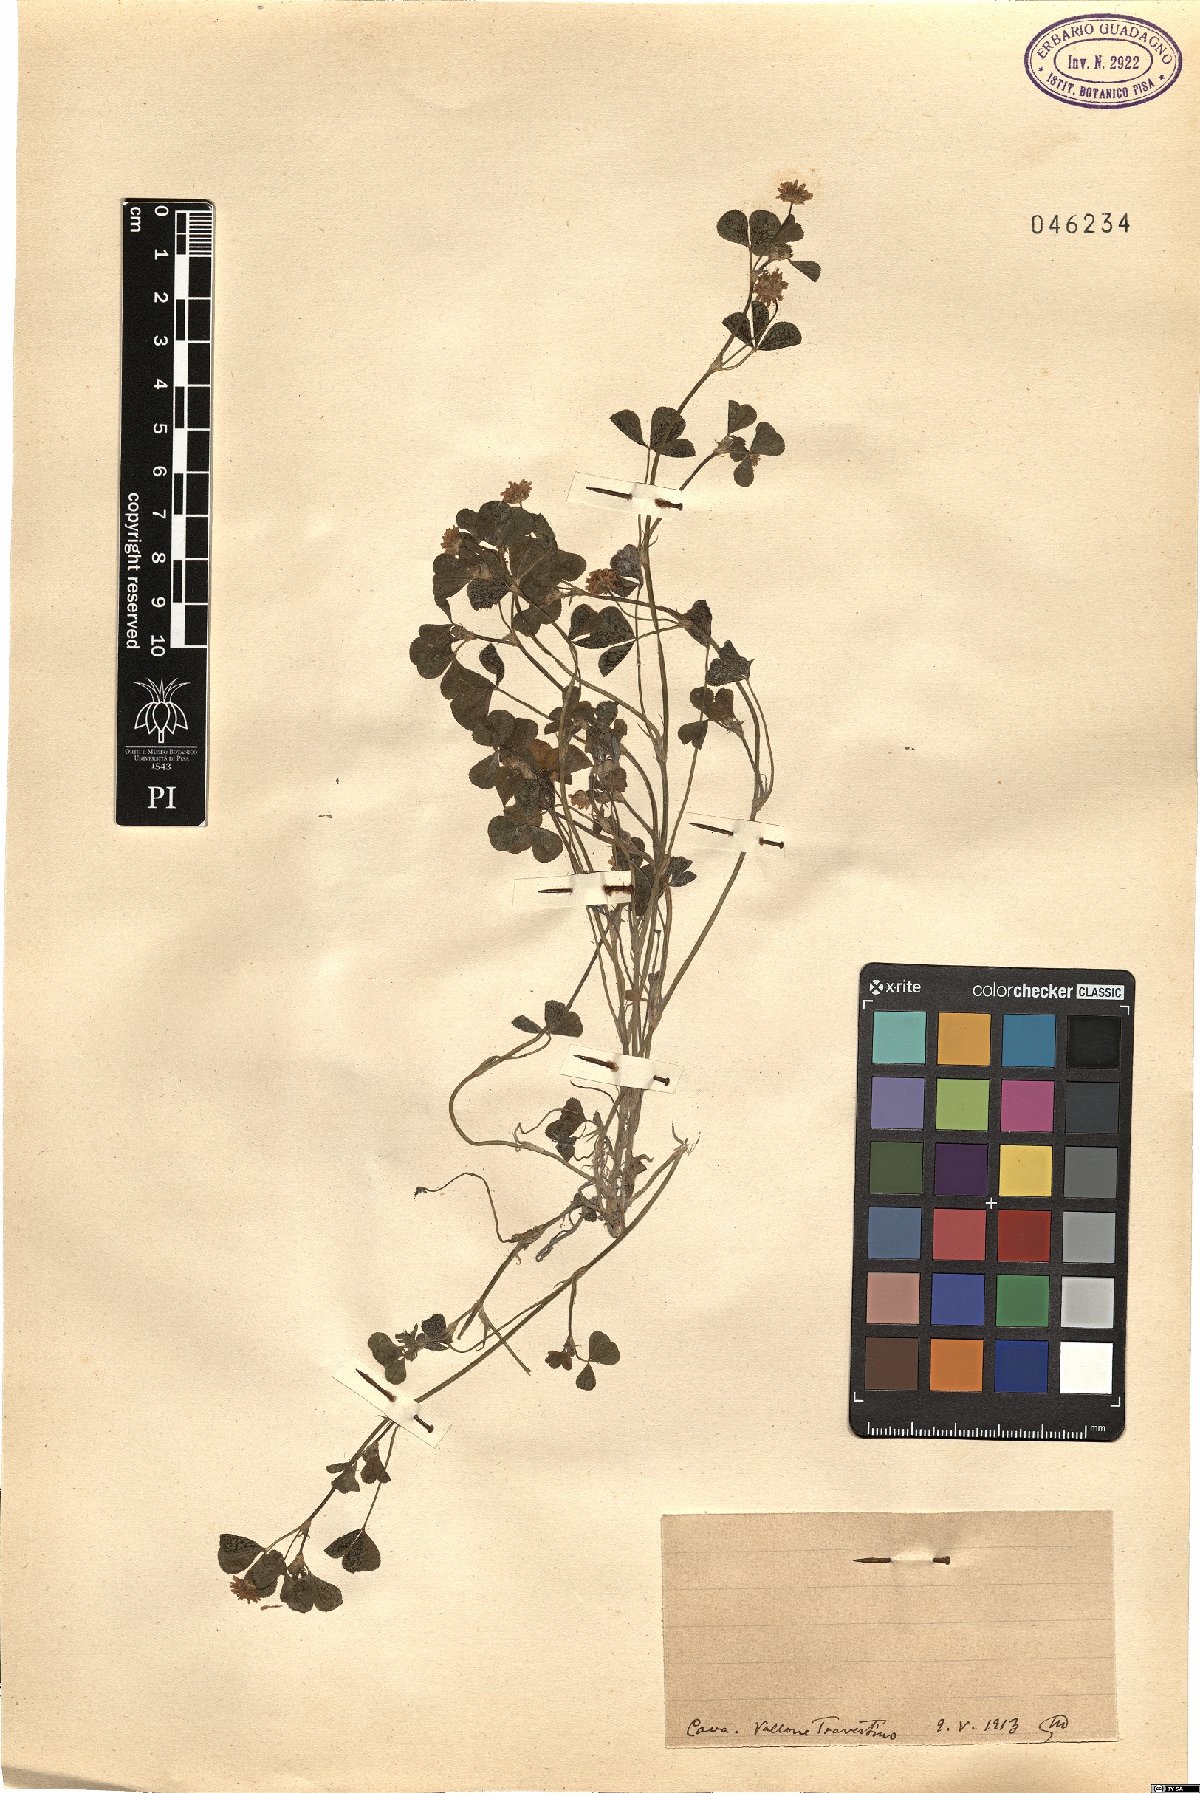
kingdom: Plantae
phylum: Tracheophyta
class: Magnoliopsida
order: Fabales
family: Fabaceae
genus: Trifolium
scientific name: Trifolium
